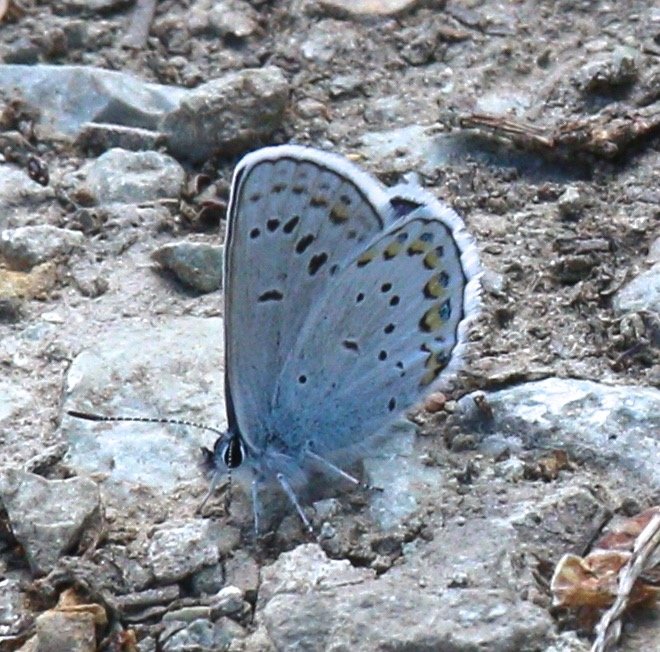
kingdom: Animalia
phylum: Arthropoda
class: Insecta
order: Lepidoptera
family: Lycaenidae
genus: Lycaeides
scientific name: Lycaeides melissa
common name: Melissa Blue
